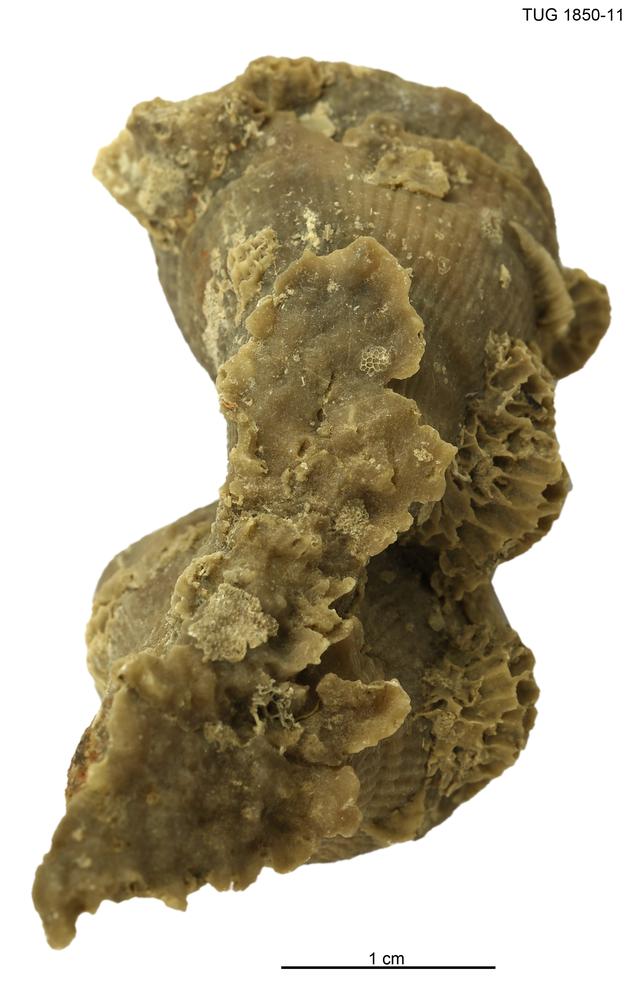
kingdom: Animalia
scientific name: Animalia
